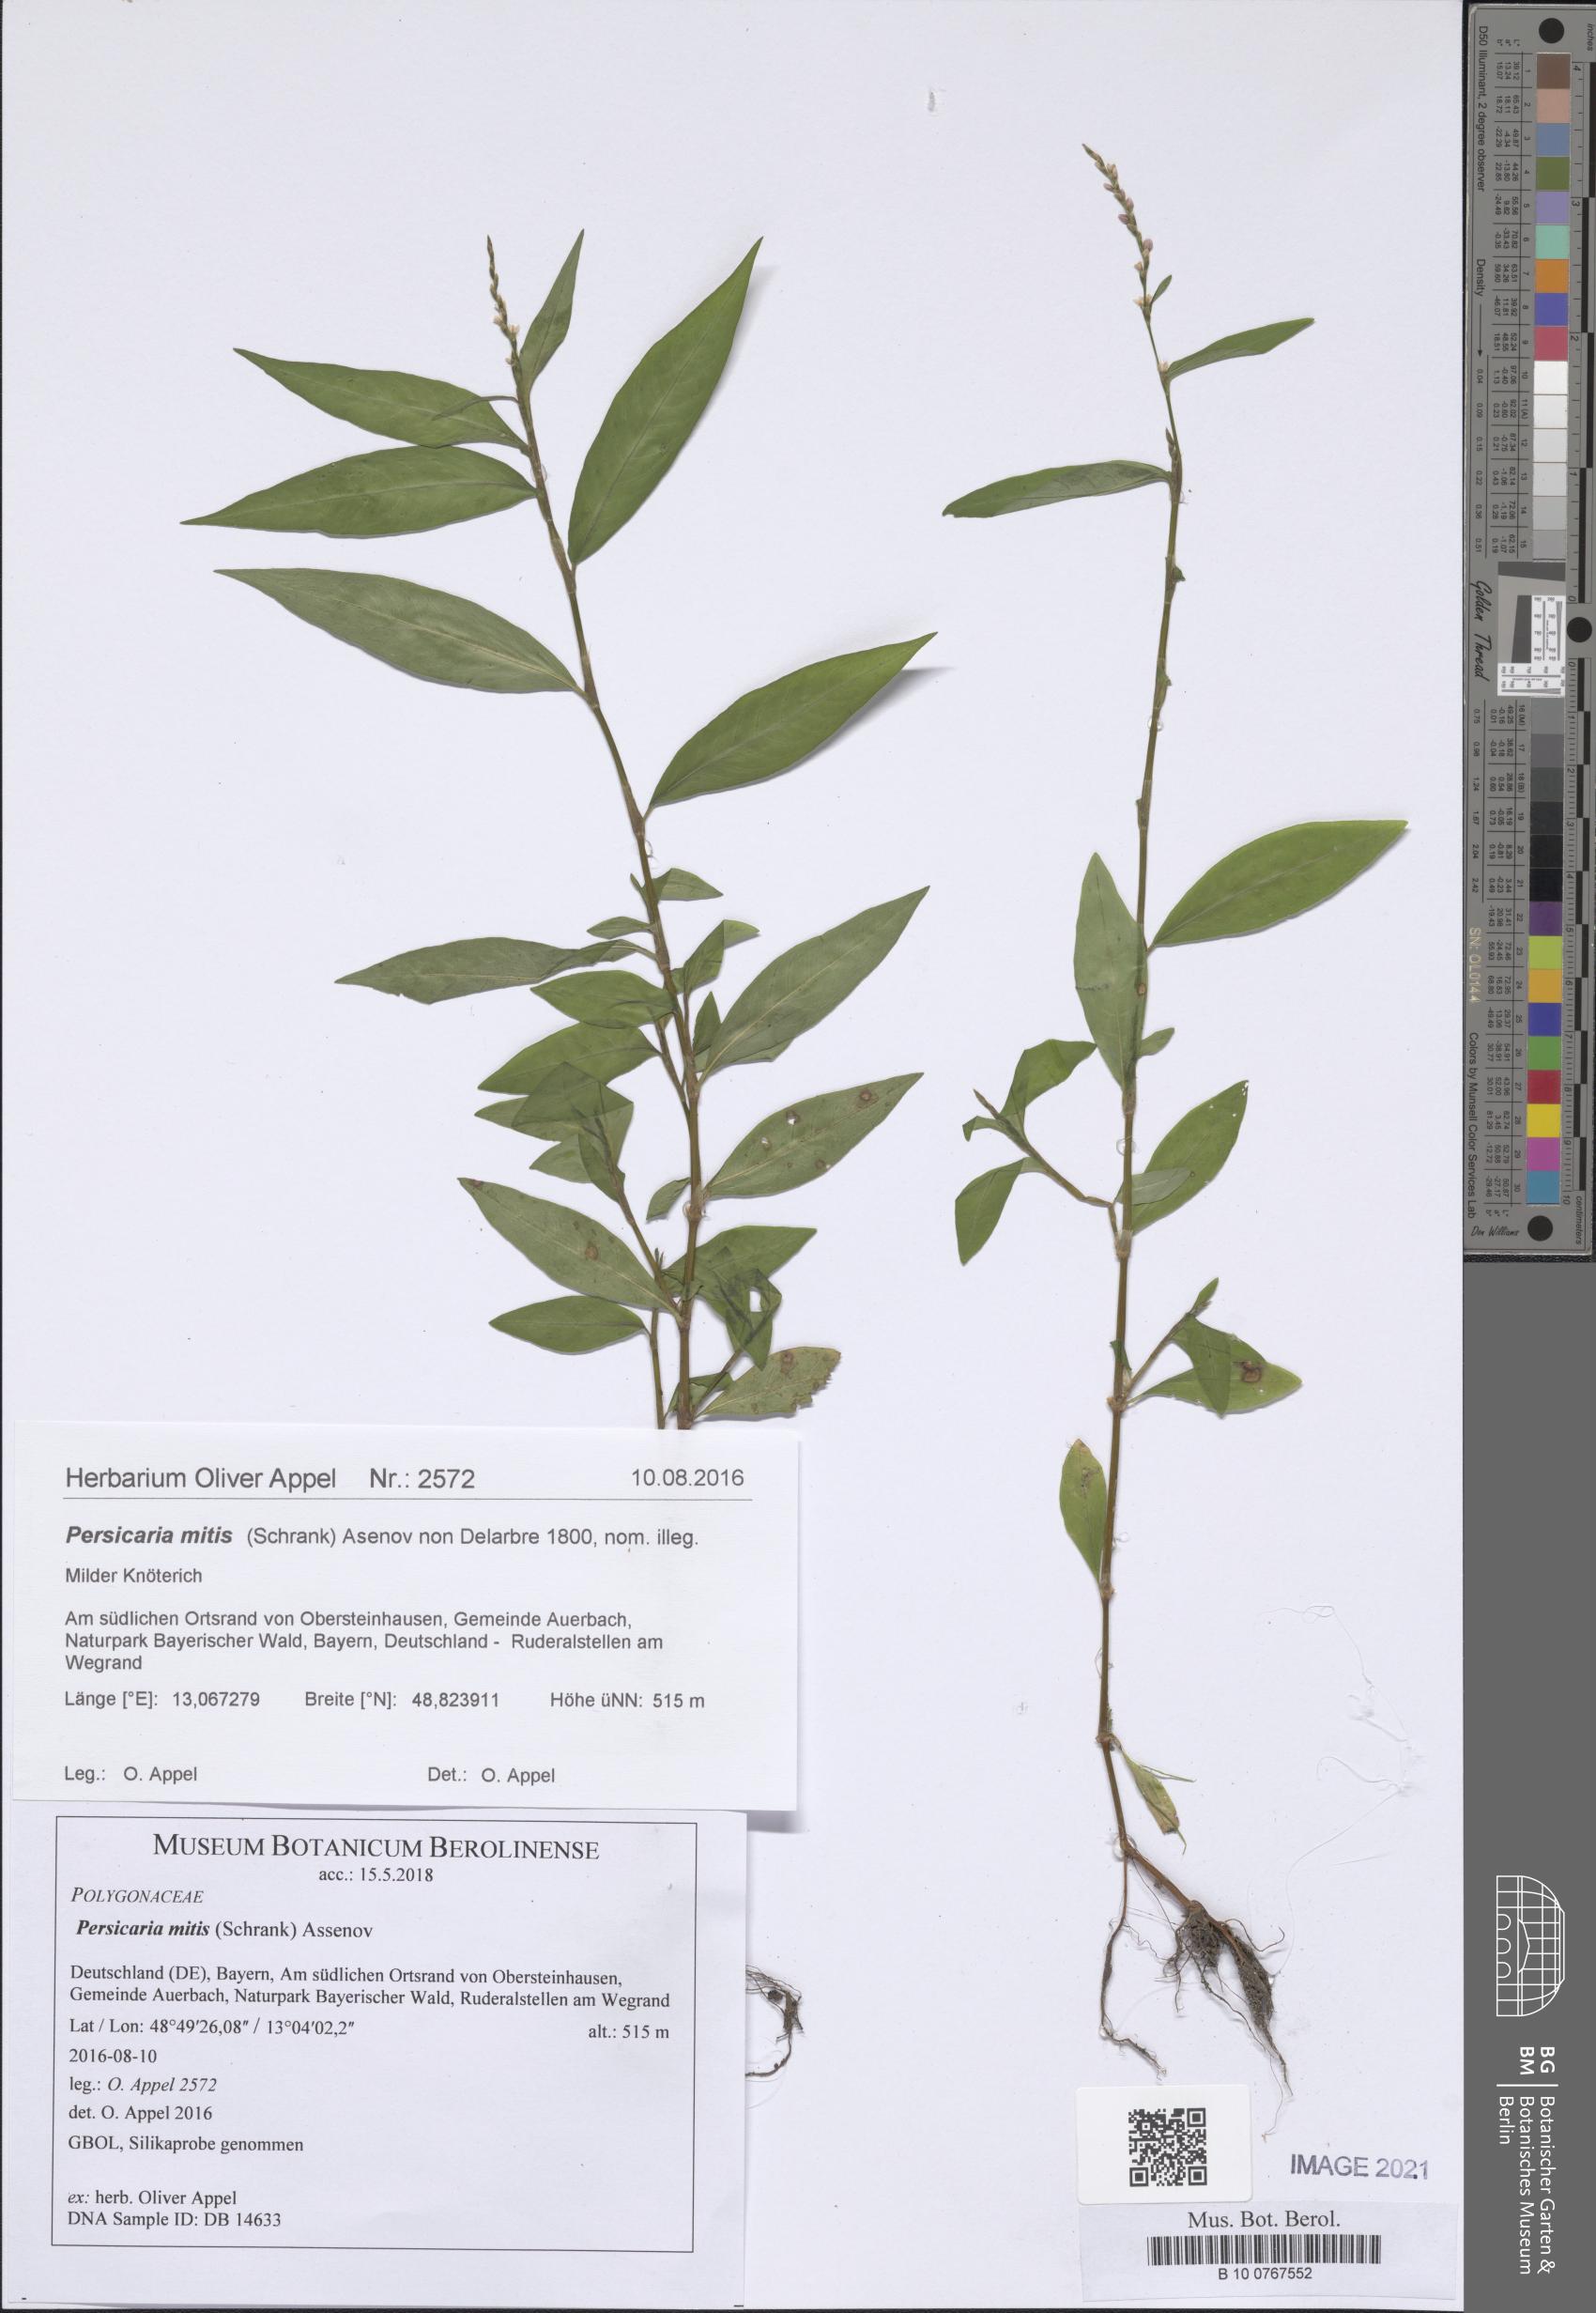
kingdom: Plantae
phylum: Tracheophyta
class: Magnoliopsida
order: Caryophyllales
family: Polygonaceae
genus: Persicaria
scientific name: Persicaria mitis
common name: Tasteless water-pepper
